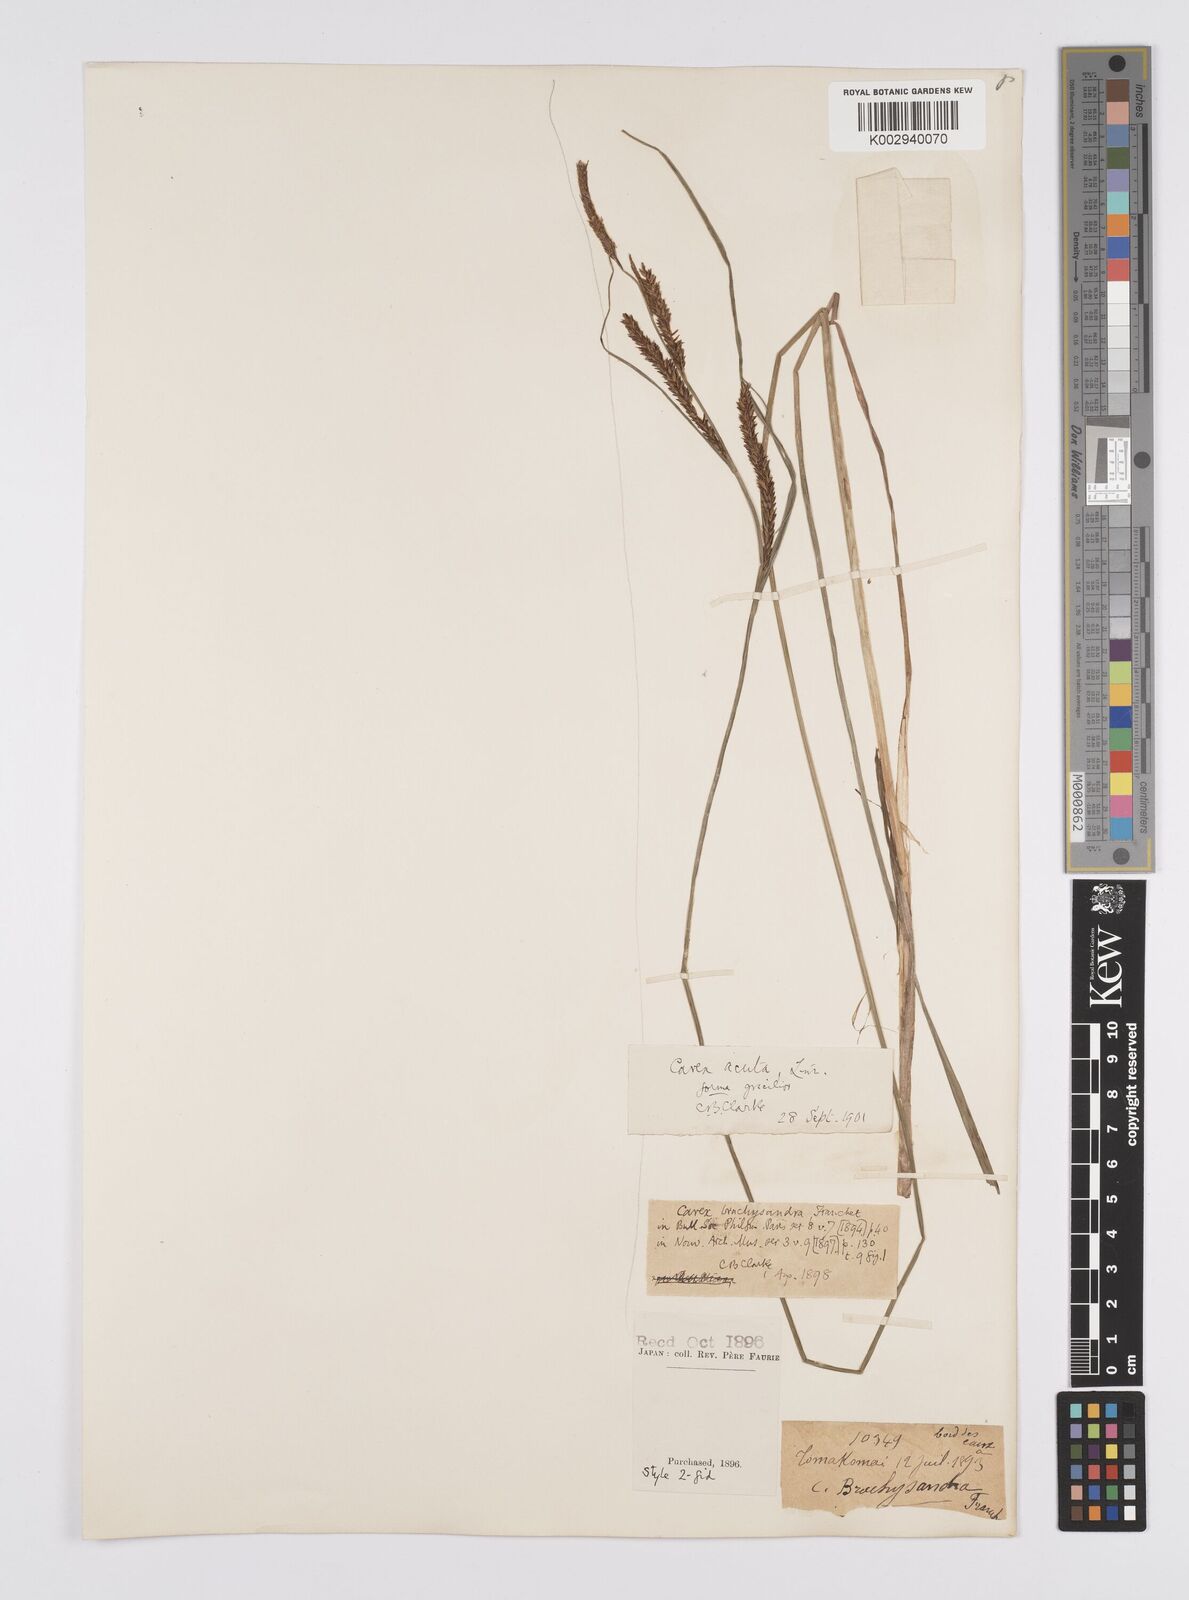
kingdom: Plantae
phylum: Tracheophyta
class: Liliopsida
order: Poales
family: Cyperaceae
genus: Carex
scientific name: Carex thunbergii
